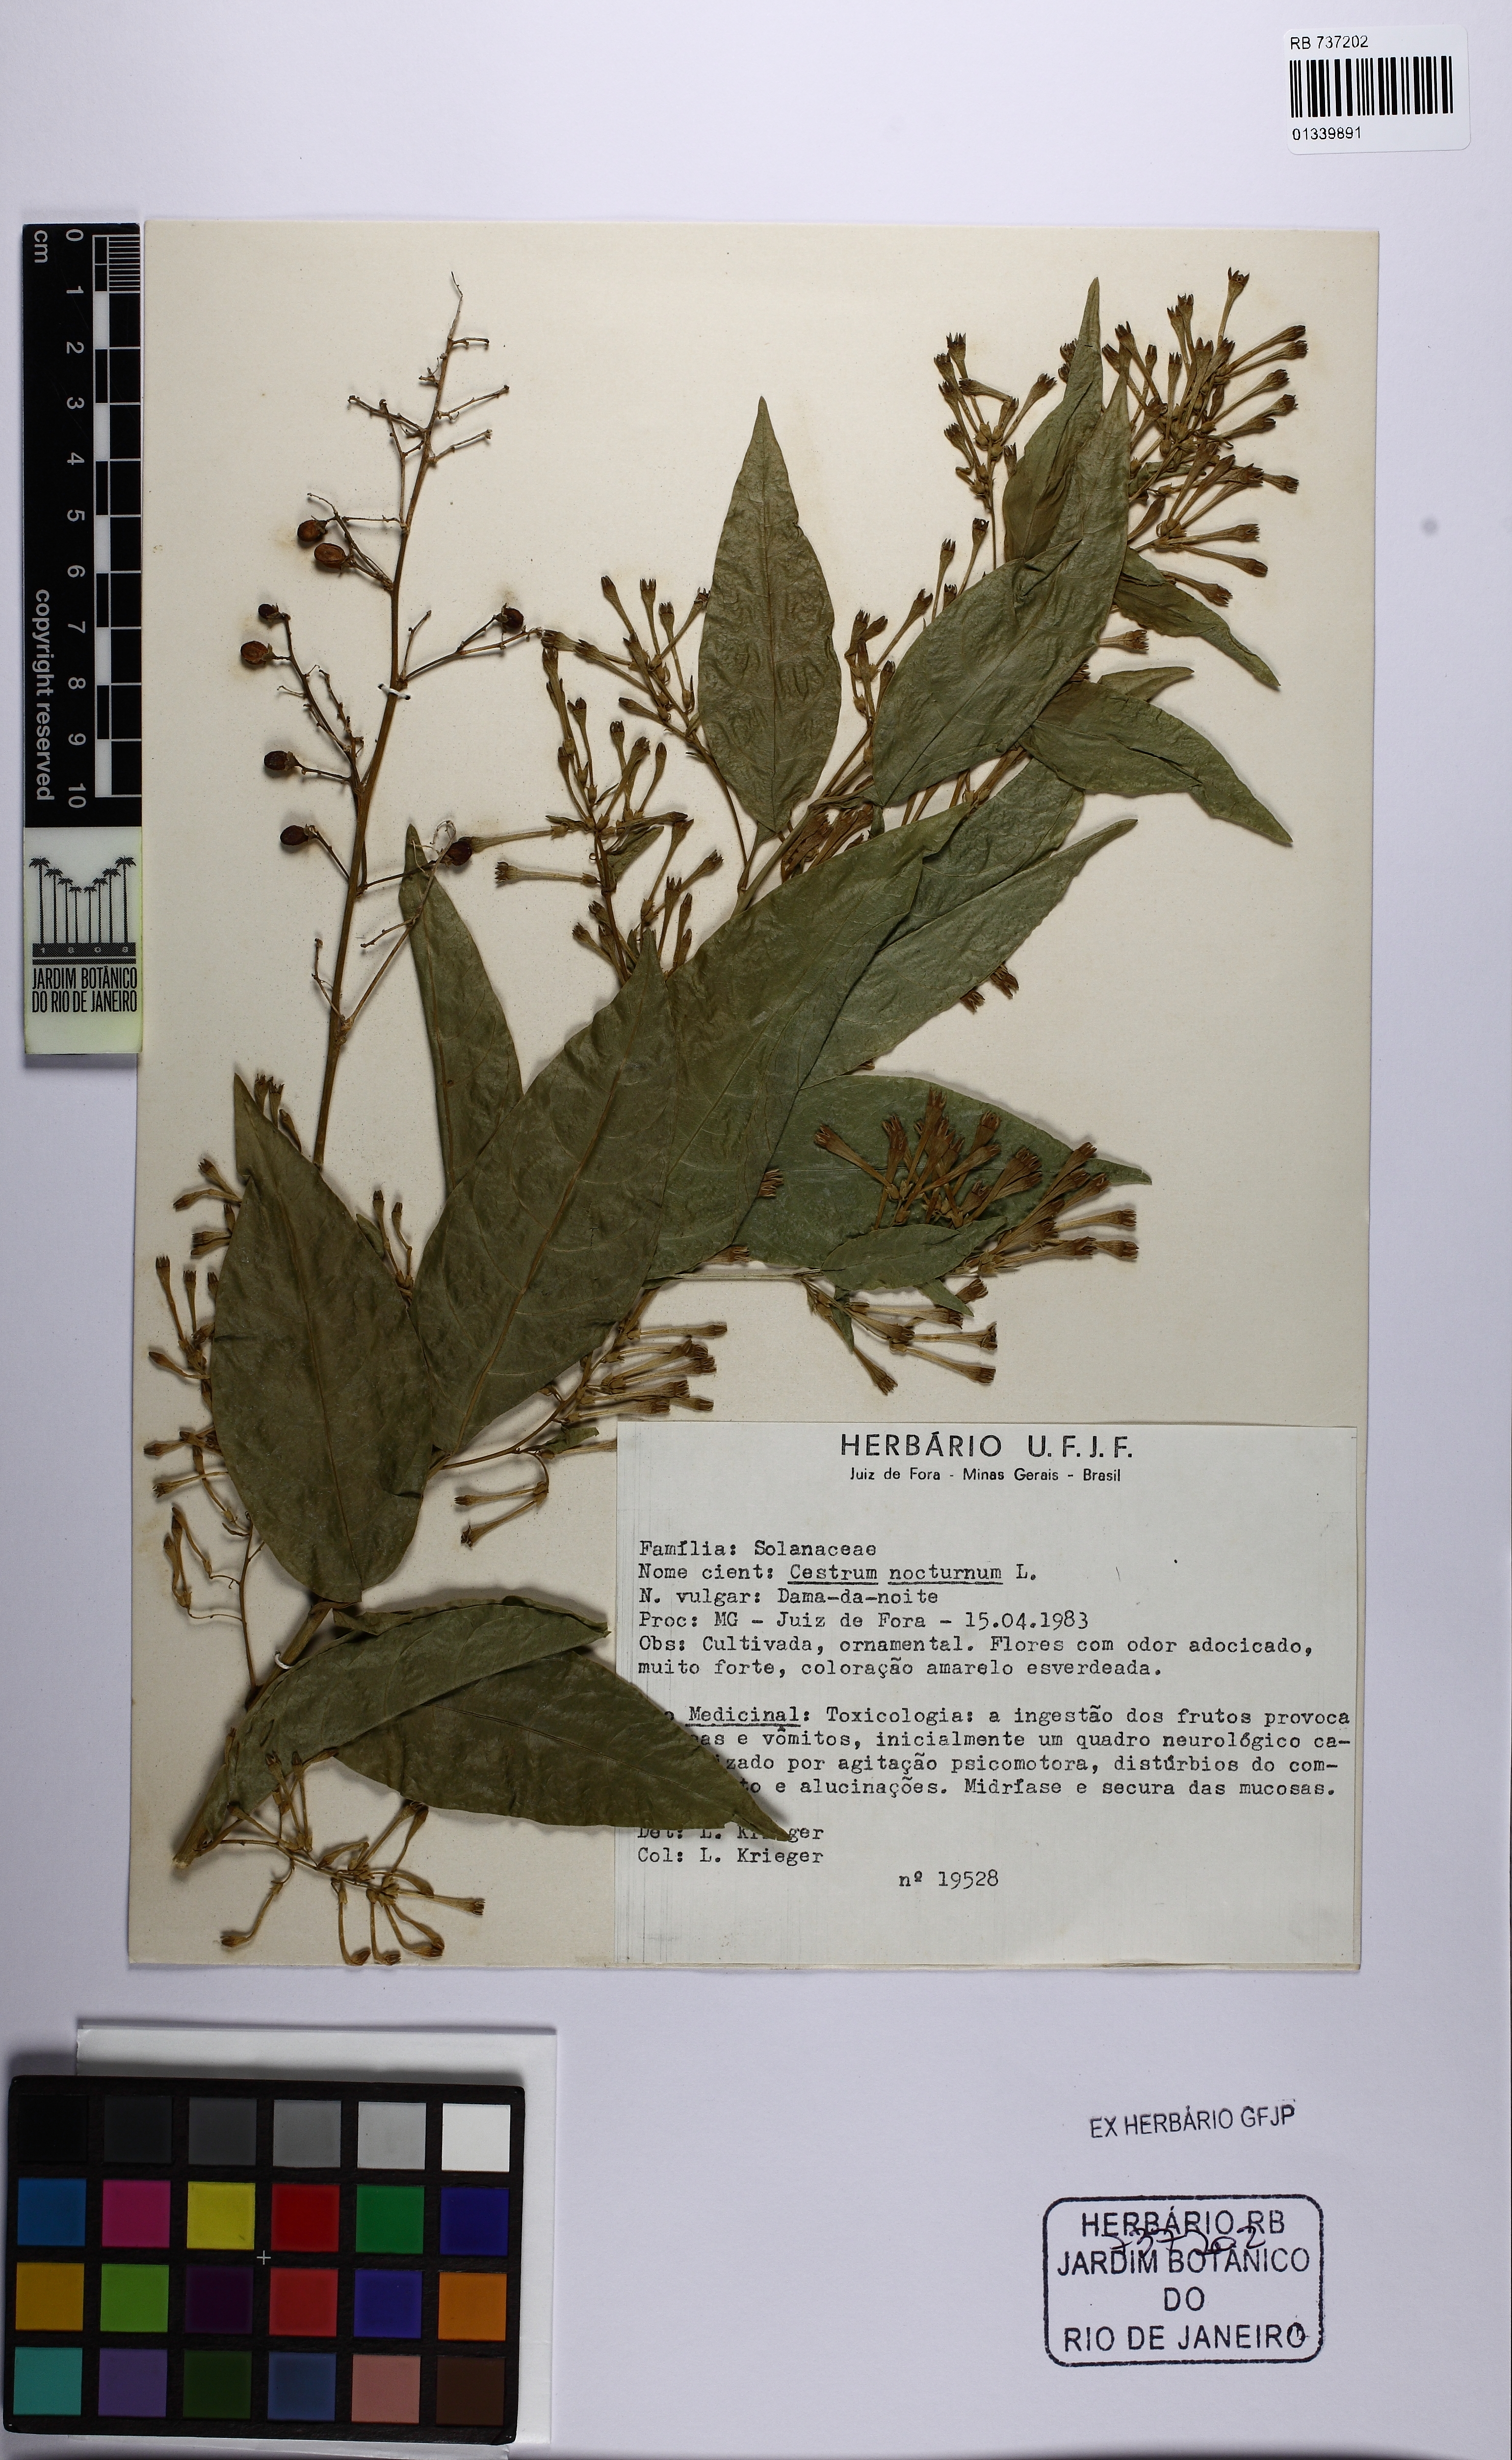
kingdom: Plantae
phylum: Tracheophyta
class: Magnoliopsida
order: Solanales
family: Solanaceae
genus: Cestrum
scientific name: Cestrum nocturnum
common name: Night jessamine
